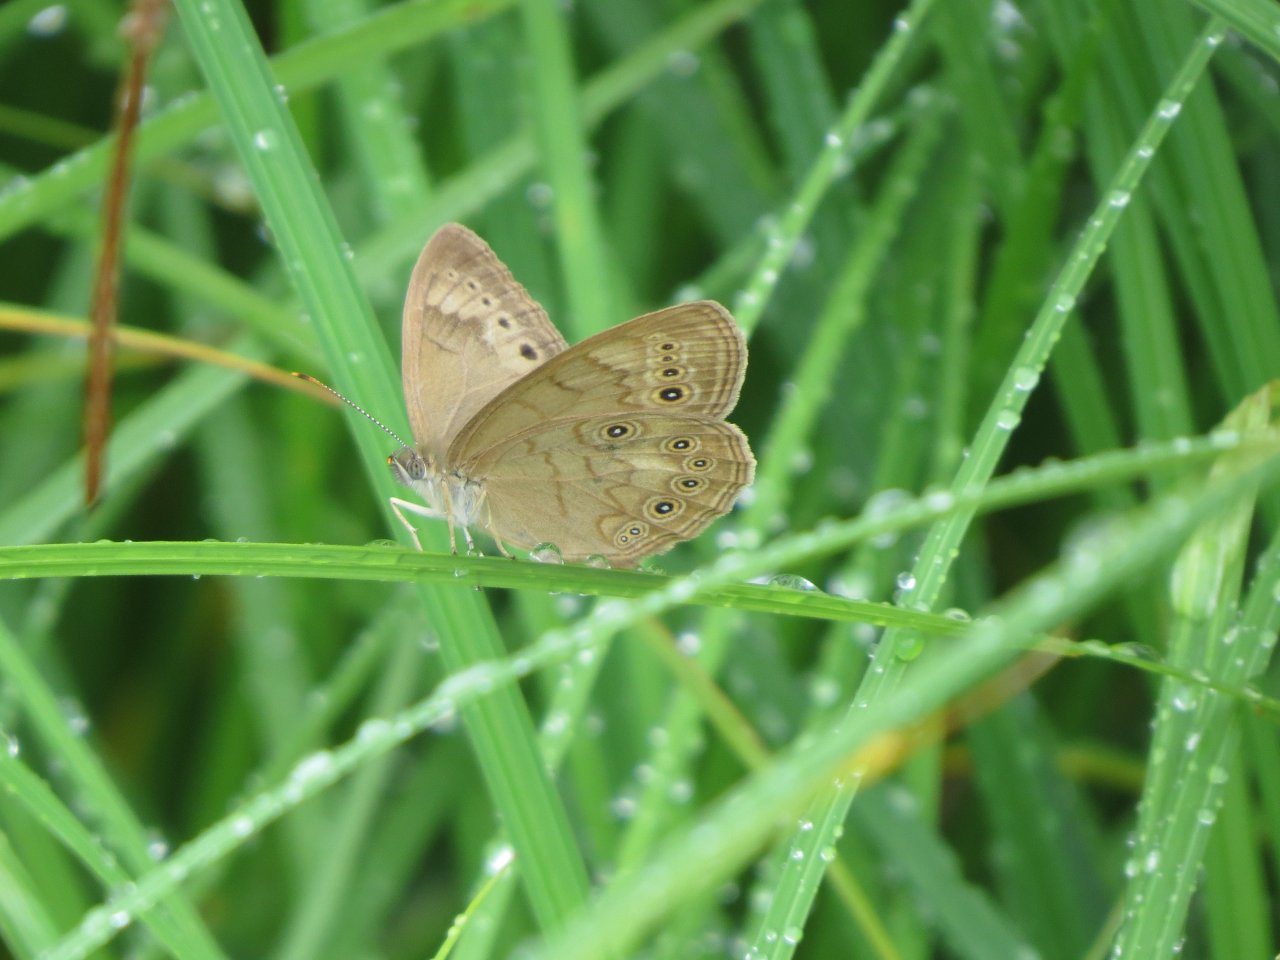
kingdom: Animalia
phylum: Arthropoda
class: Insecta
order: Lepidoptera
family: Nymphalidae
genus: Lethe
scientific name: Lethe eurydice
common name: Eyed Brown
